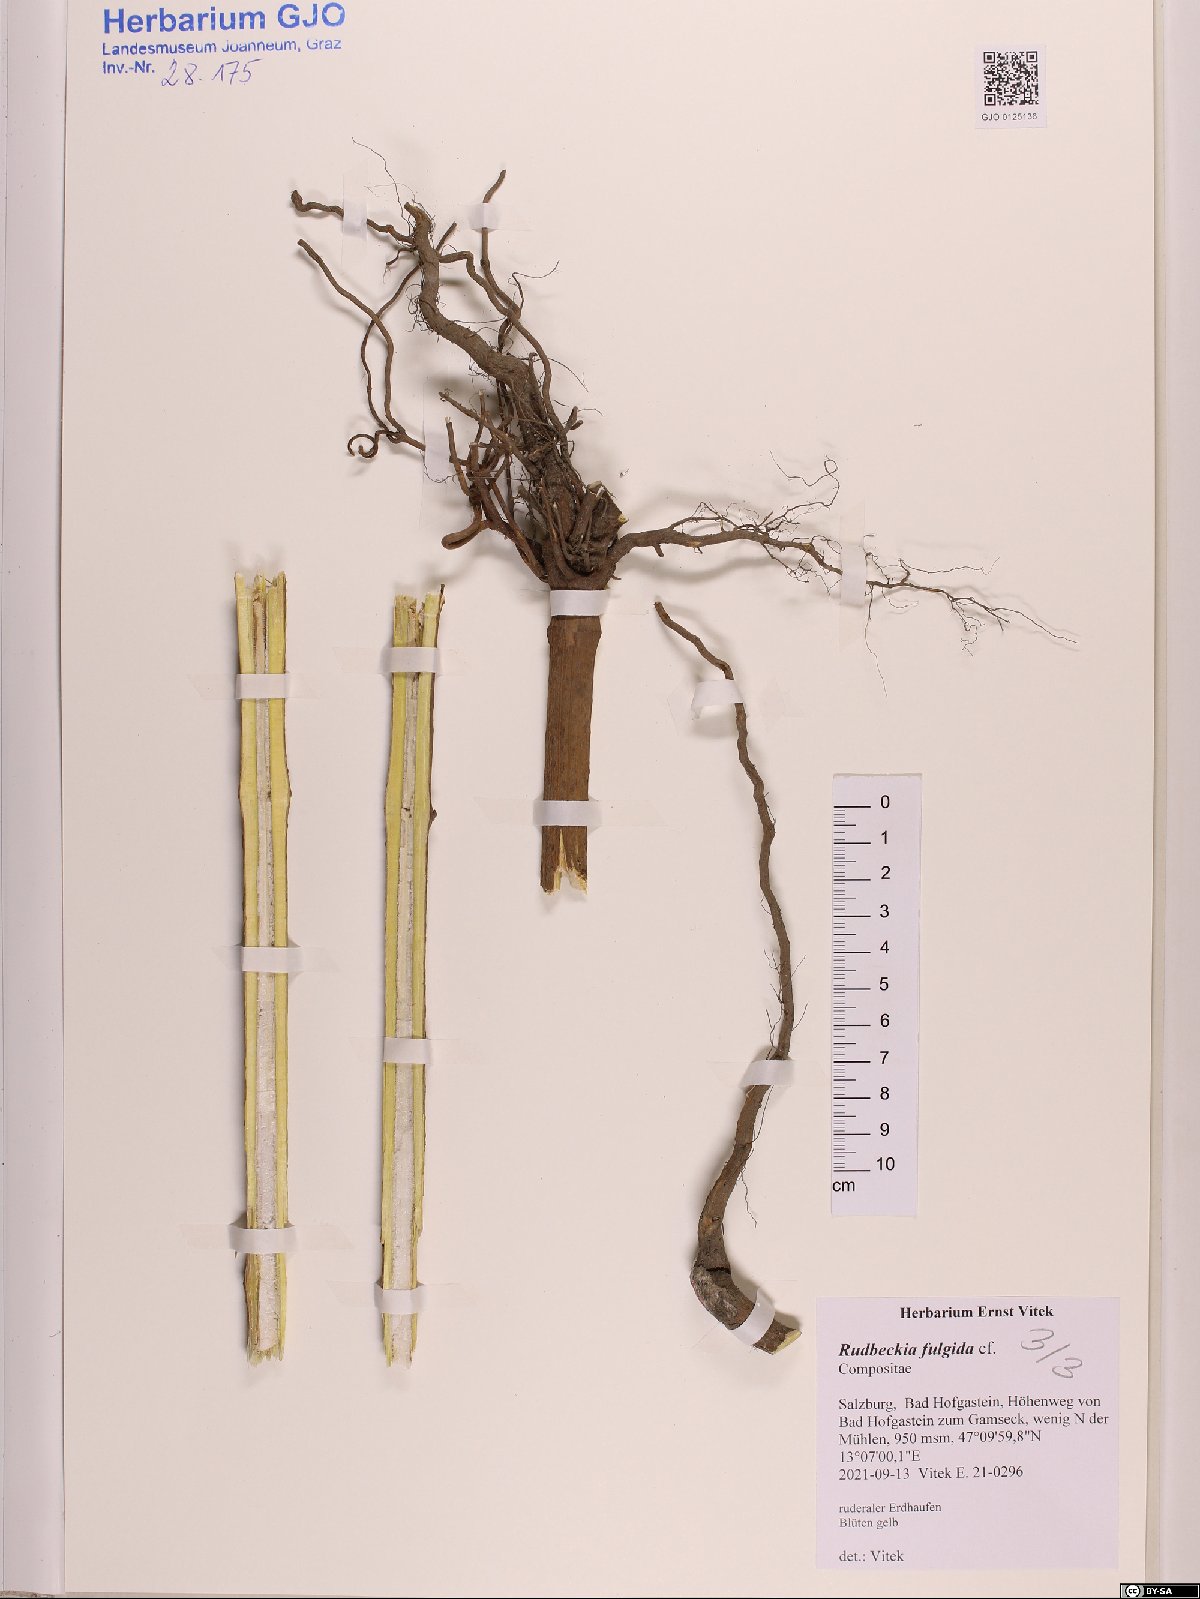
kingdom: Plantae
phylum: Tracheophyta
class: Magnoliopsida
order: Asterales
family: Asteraceae
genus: Rudbeckia
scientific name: Rudbeckia fulgida
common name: Perennial coneflower
